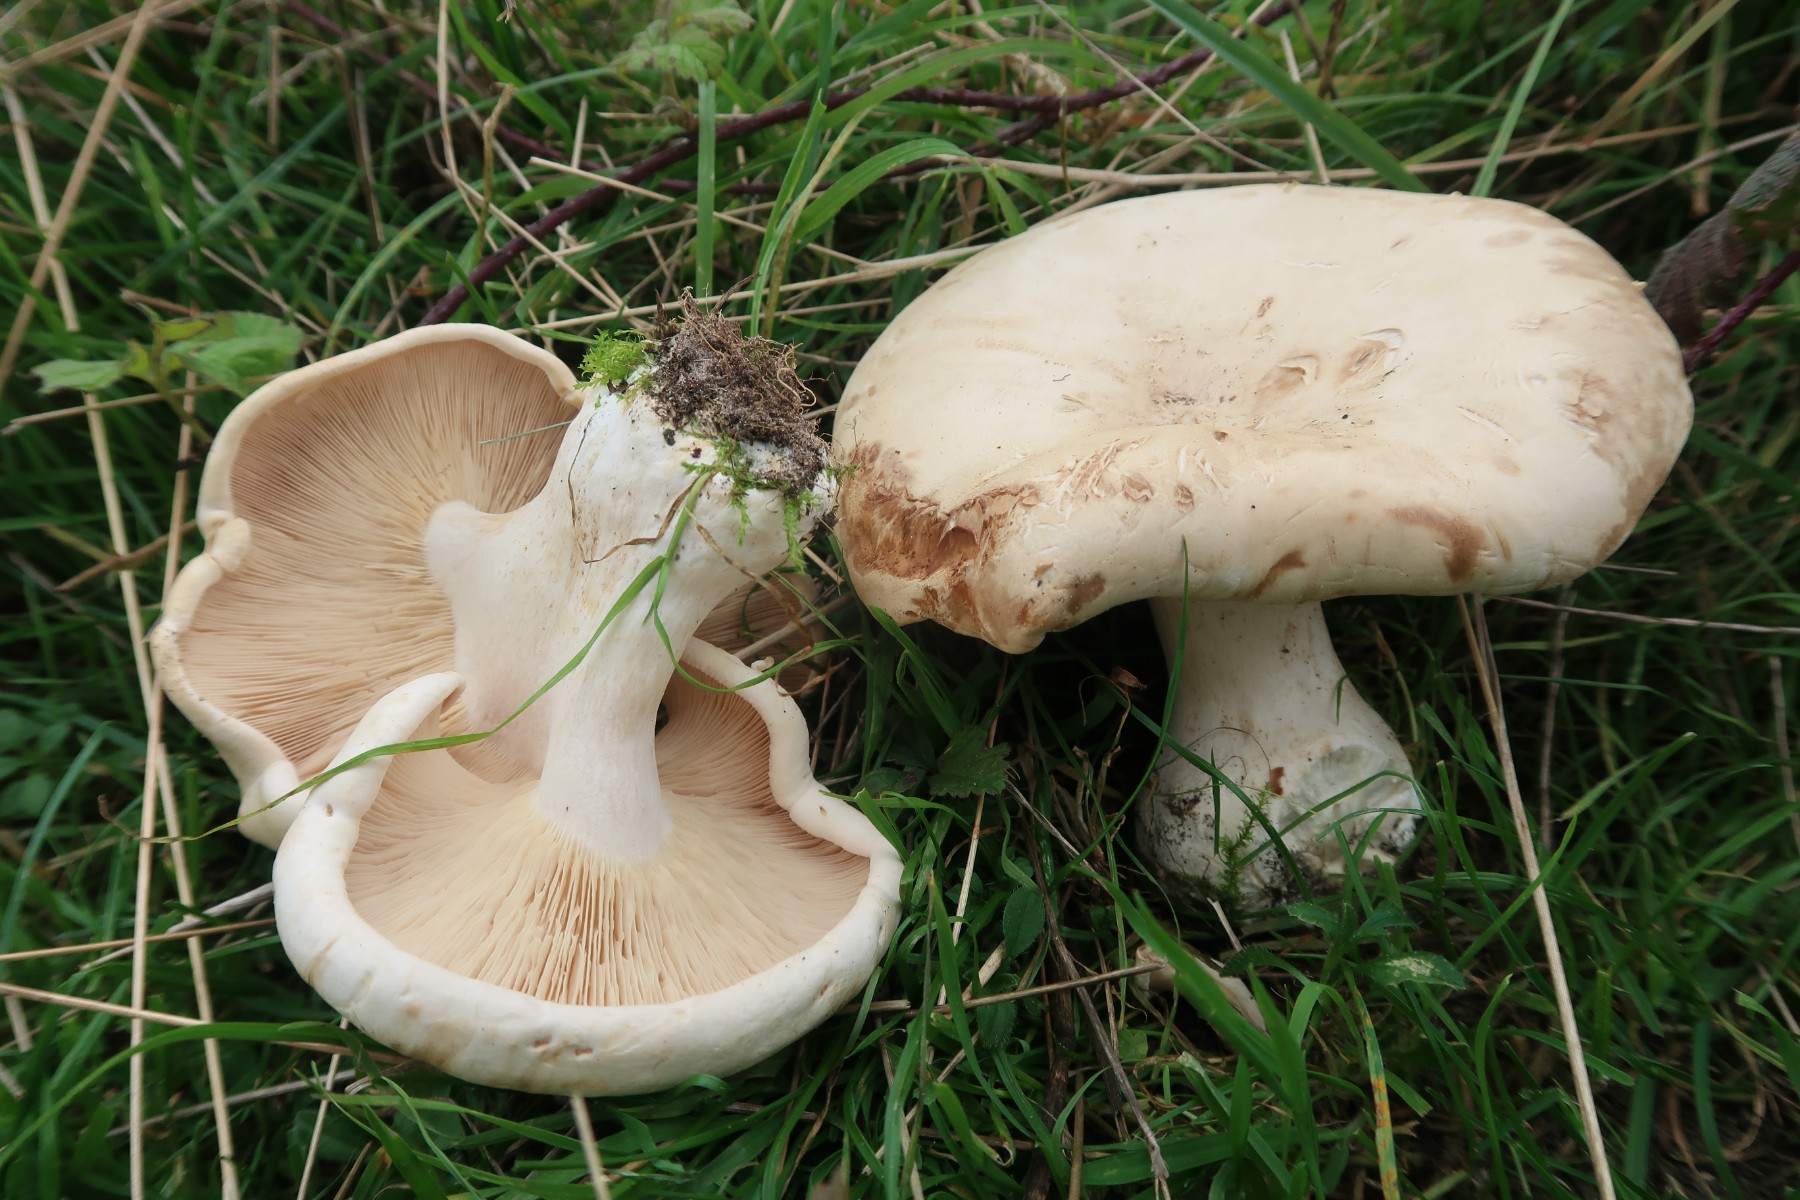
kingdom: Fungi
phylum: Basidiomycota
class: Agaricomycetes
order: Agaricales
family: Tricholomataceae
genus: Aspropaxillus
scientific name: Aspropaxillus giganteus
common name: kæmpe-tragtridderhat
